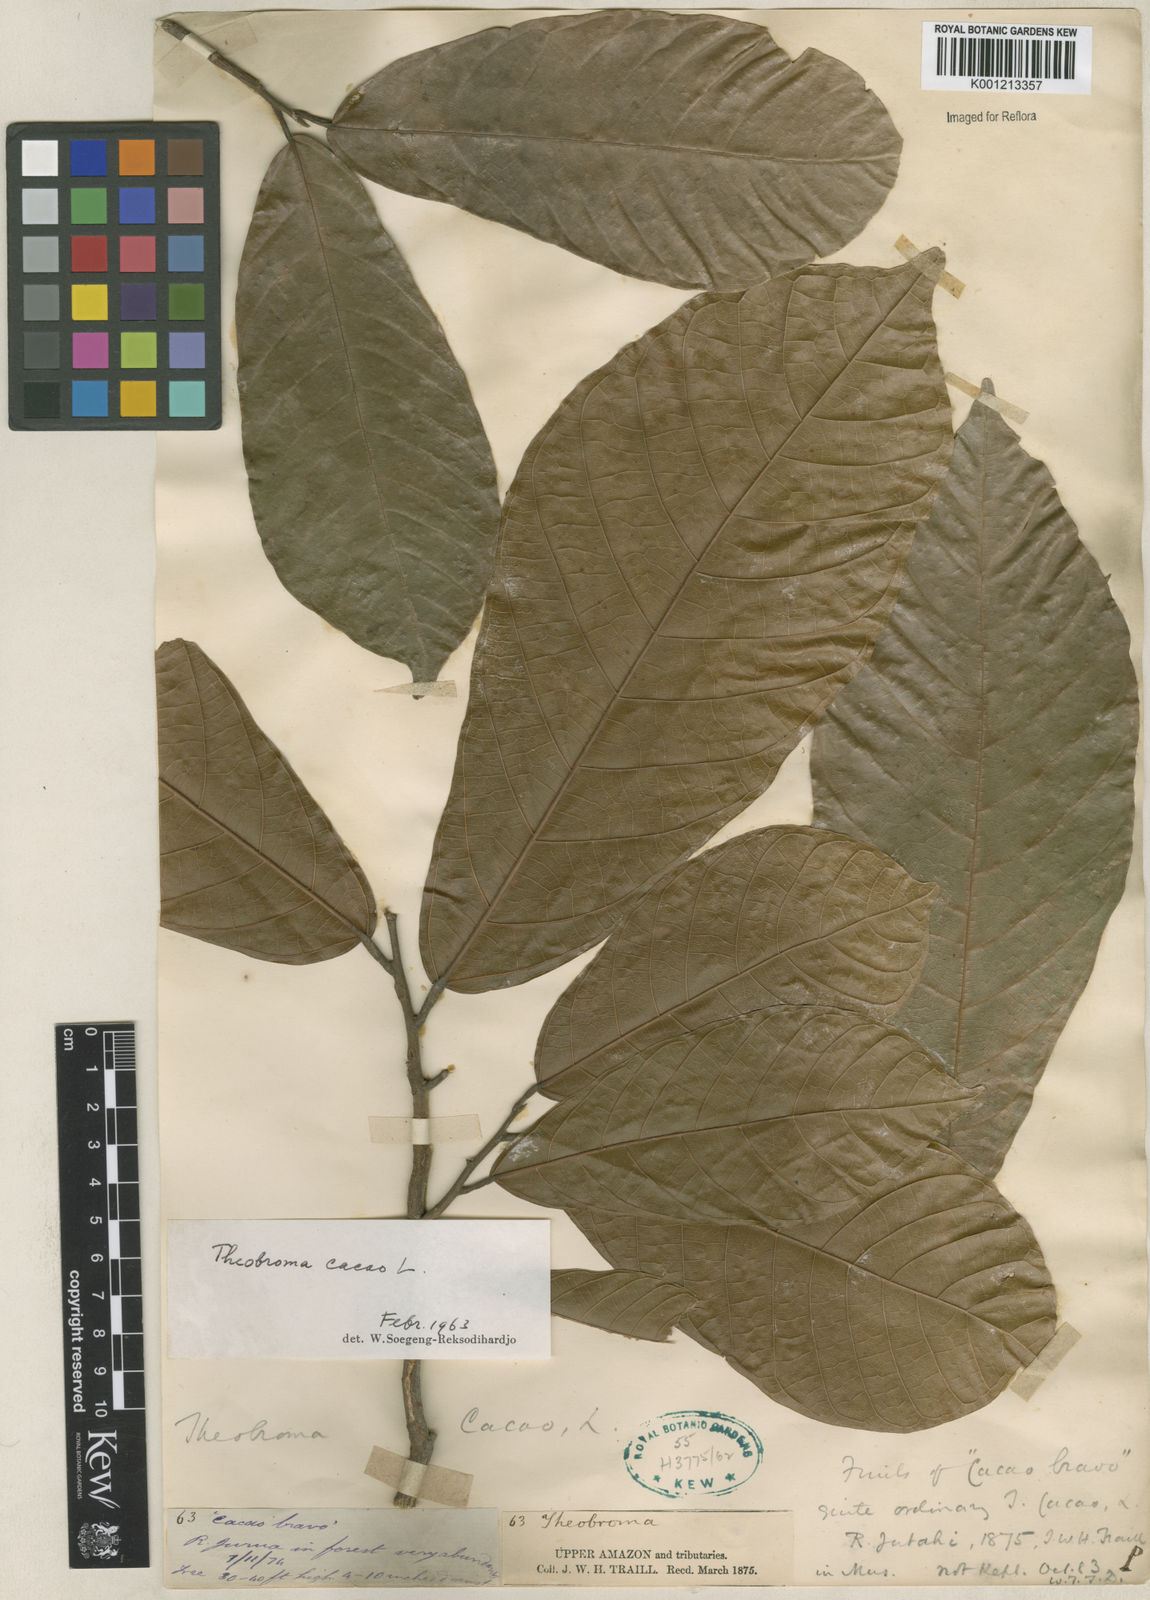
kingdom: Plantae
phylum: Tracheophyta
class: Magnoliopsida
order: Malvales
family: Malvaceae
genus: Theobroma
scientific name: Theobroma cacao
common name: Cocoa
